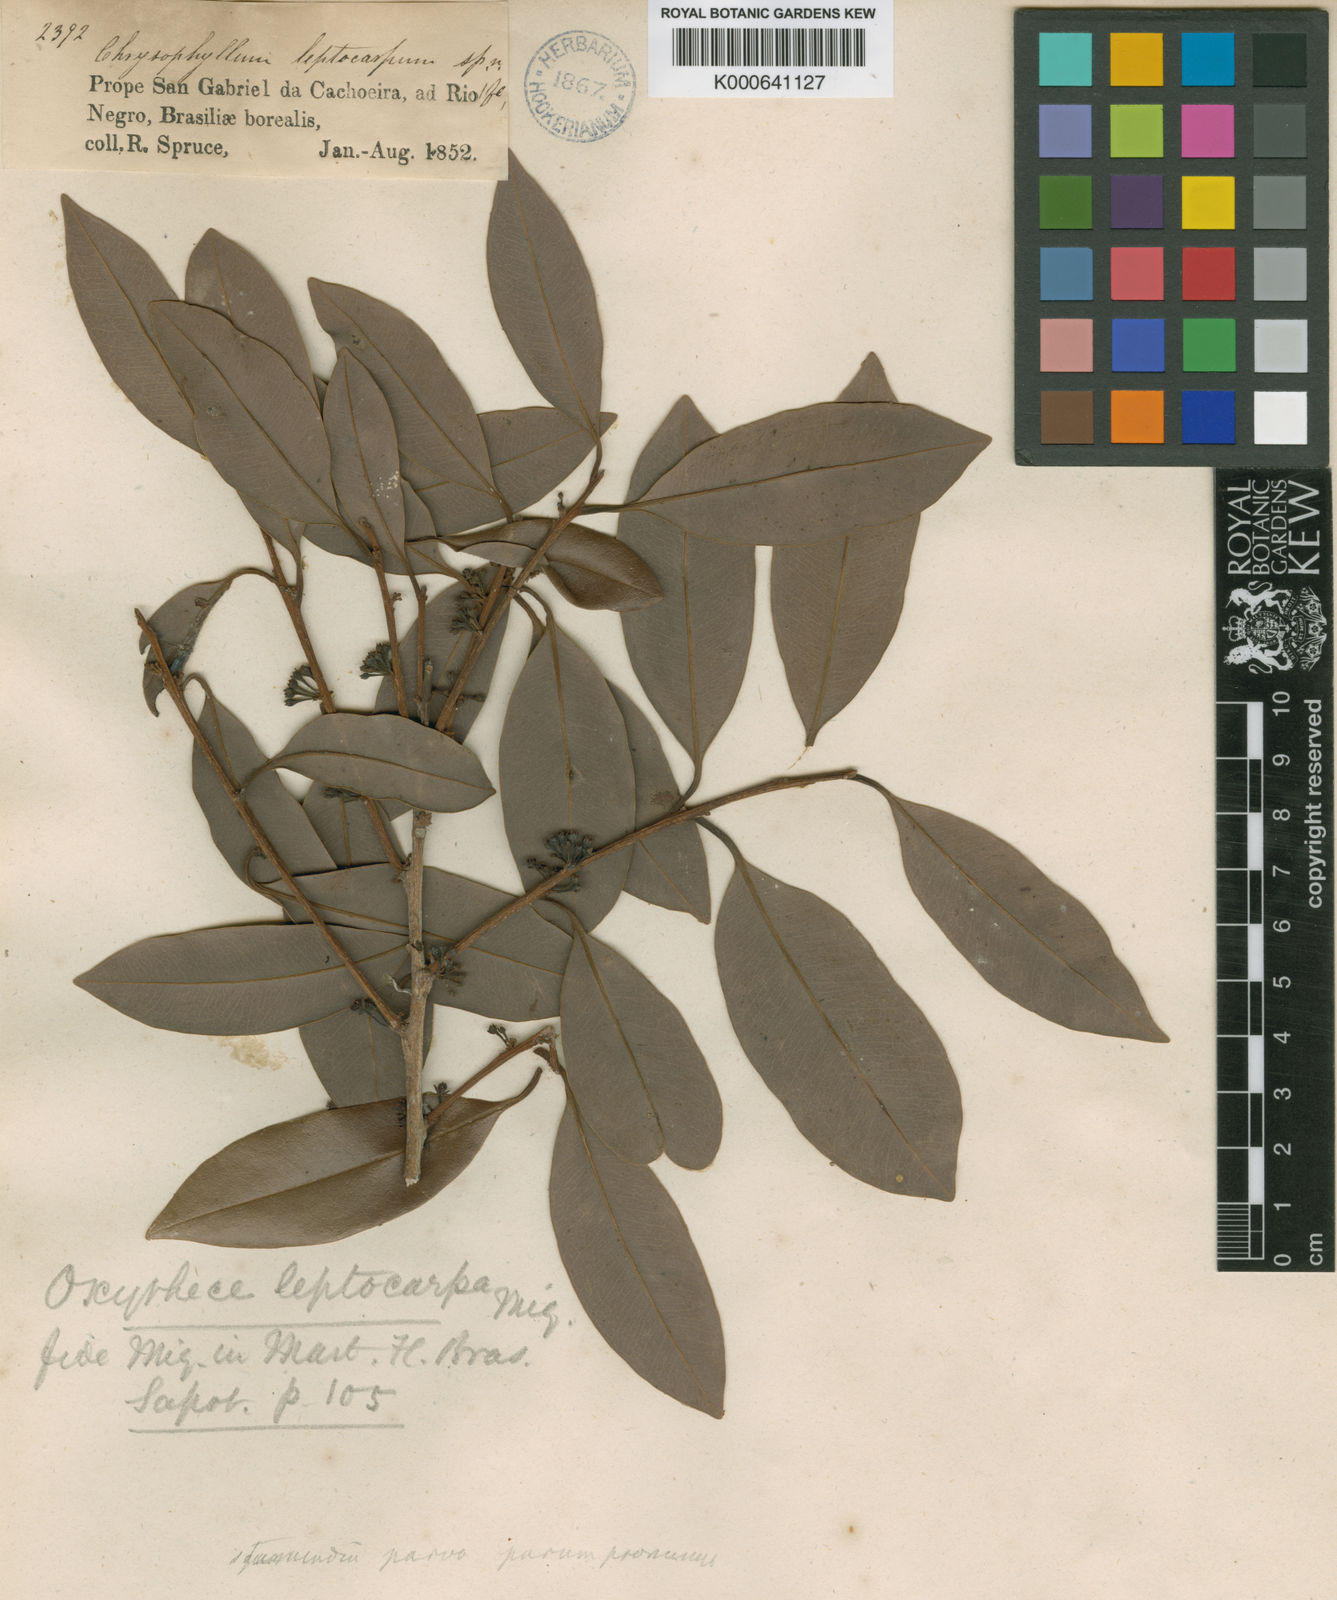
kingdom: Plantae
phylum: Tracheophyta
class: Magnoliopsida
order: Ericales
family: Sapotaceae
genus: Pouteria
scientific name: Pouteria elegans
